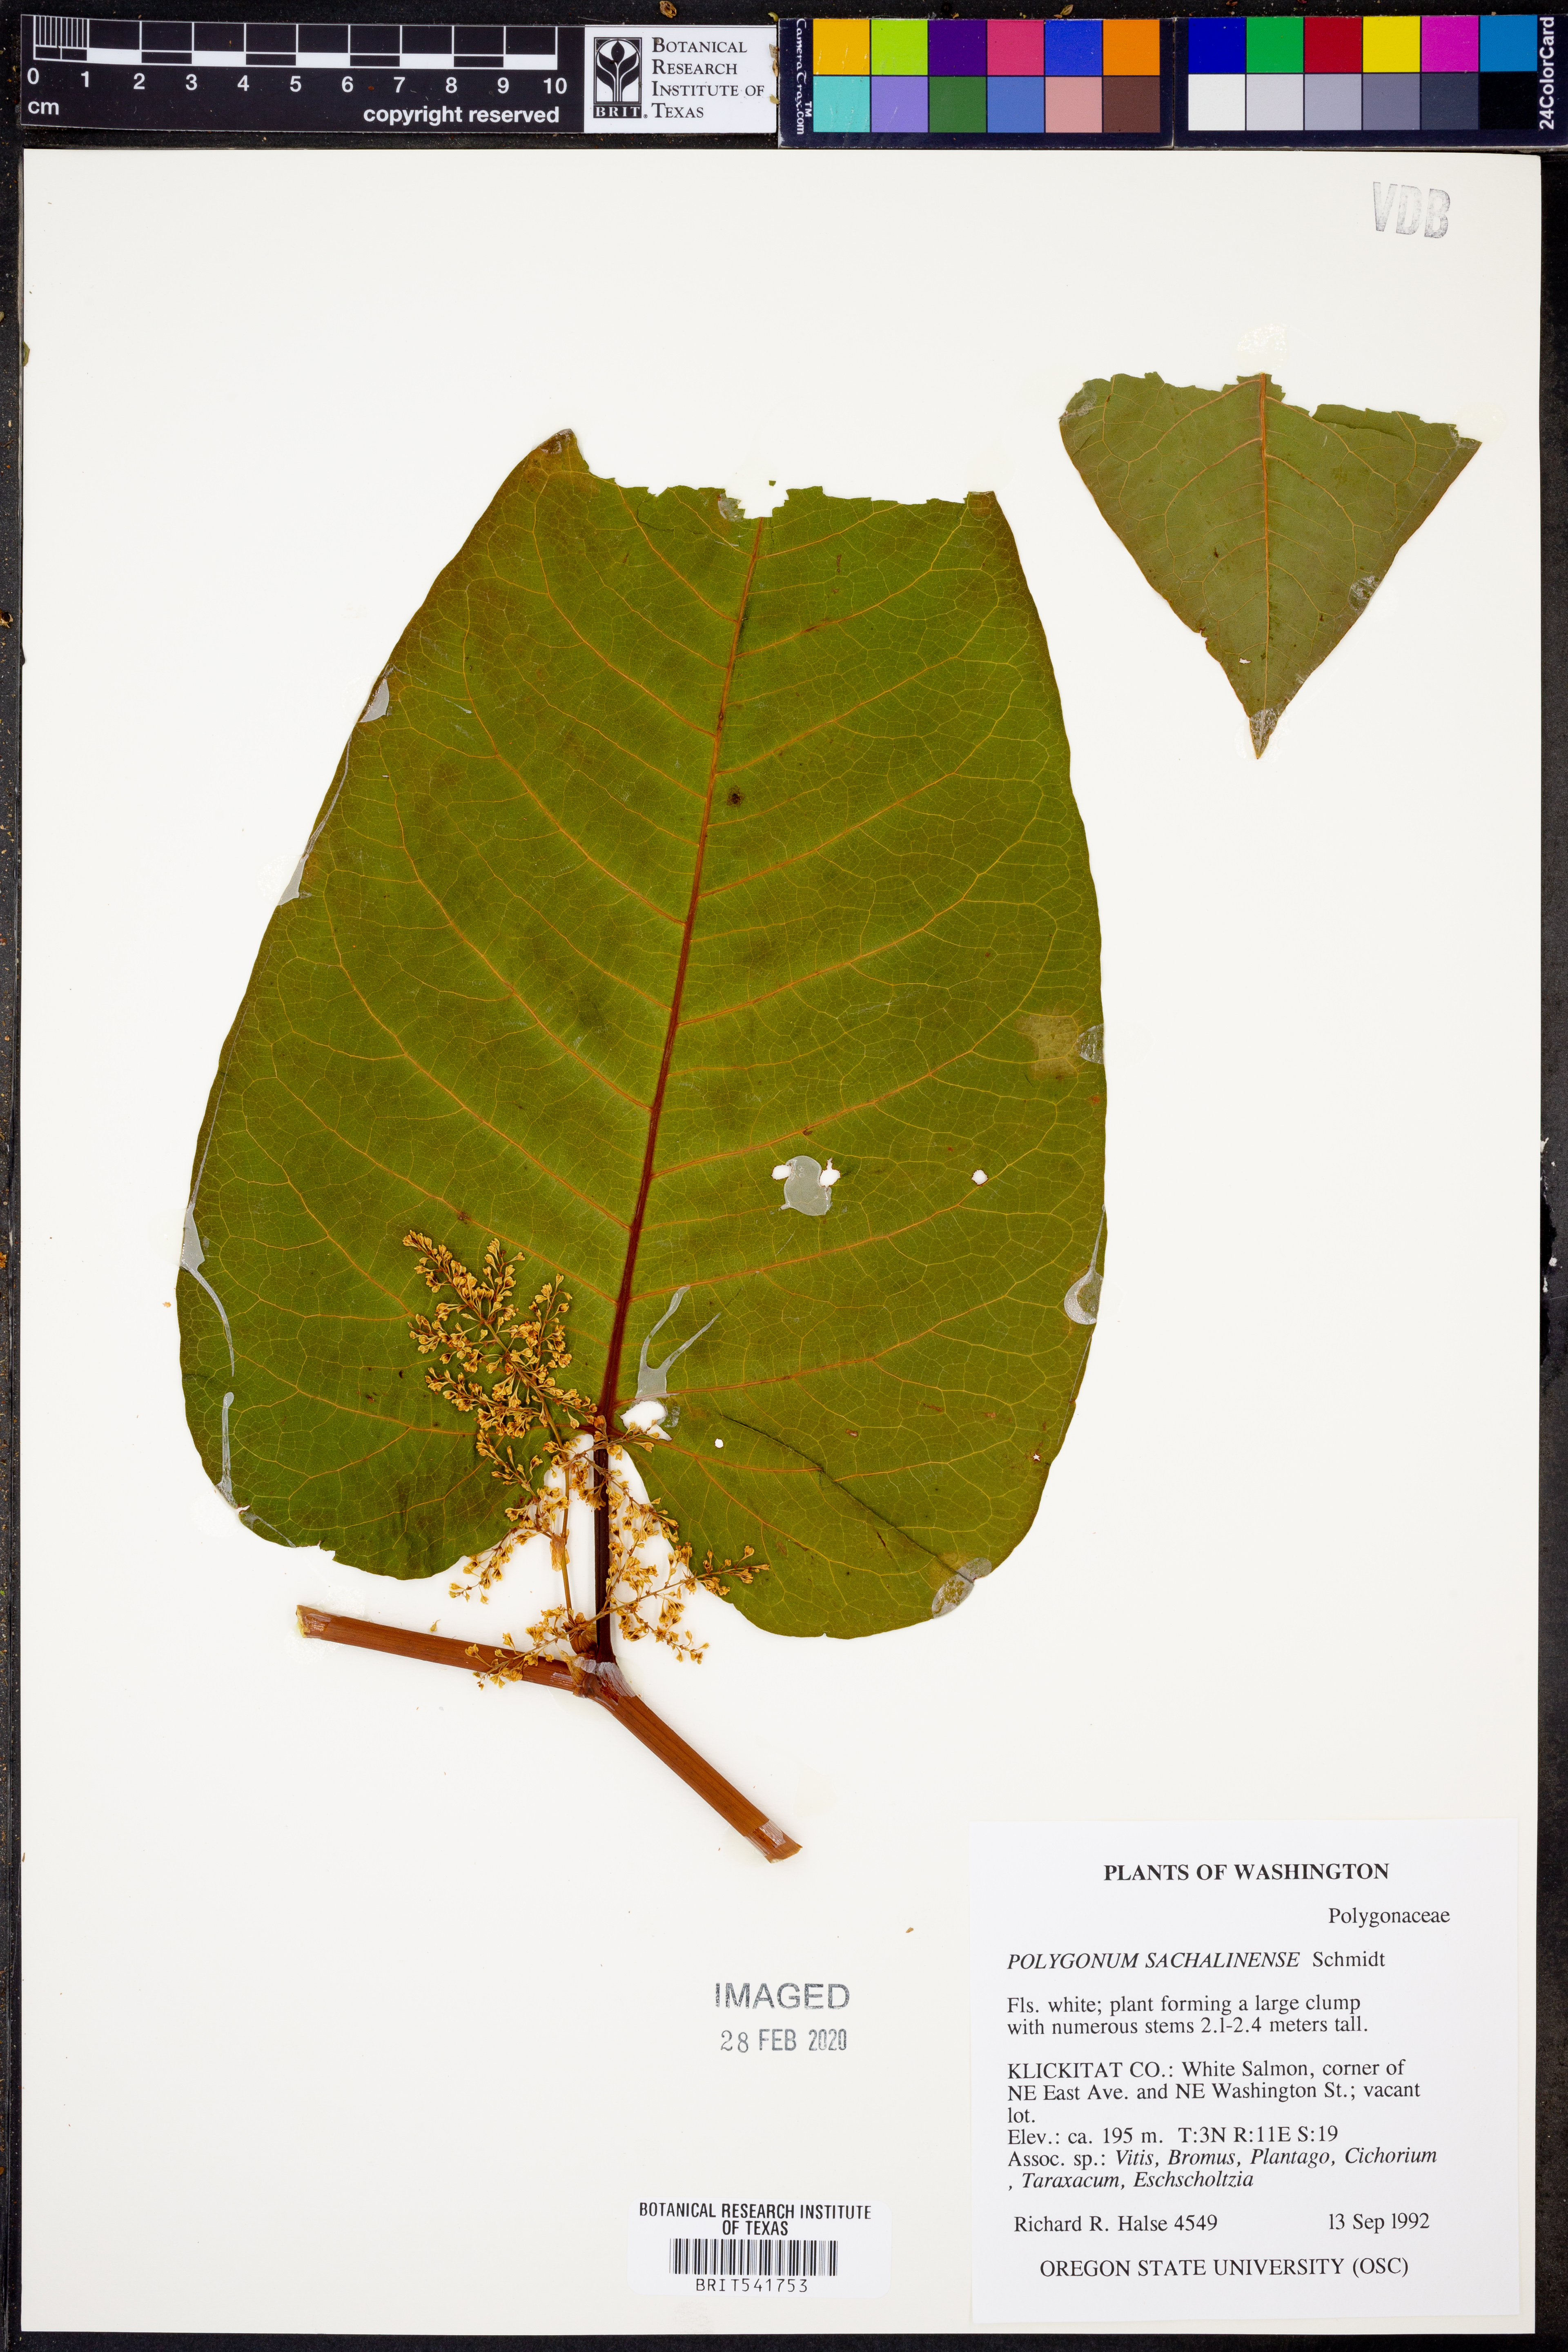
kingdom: Plantae
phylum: Tracheophyta
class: Magnoliopsida
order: Caryophyllales
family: Polygonaceae
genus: Reynoutria
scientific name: Reynoutria sachalinensis
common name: Giant knotweed
